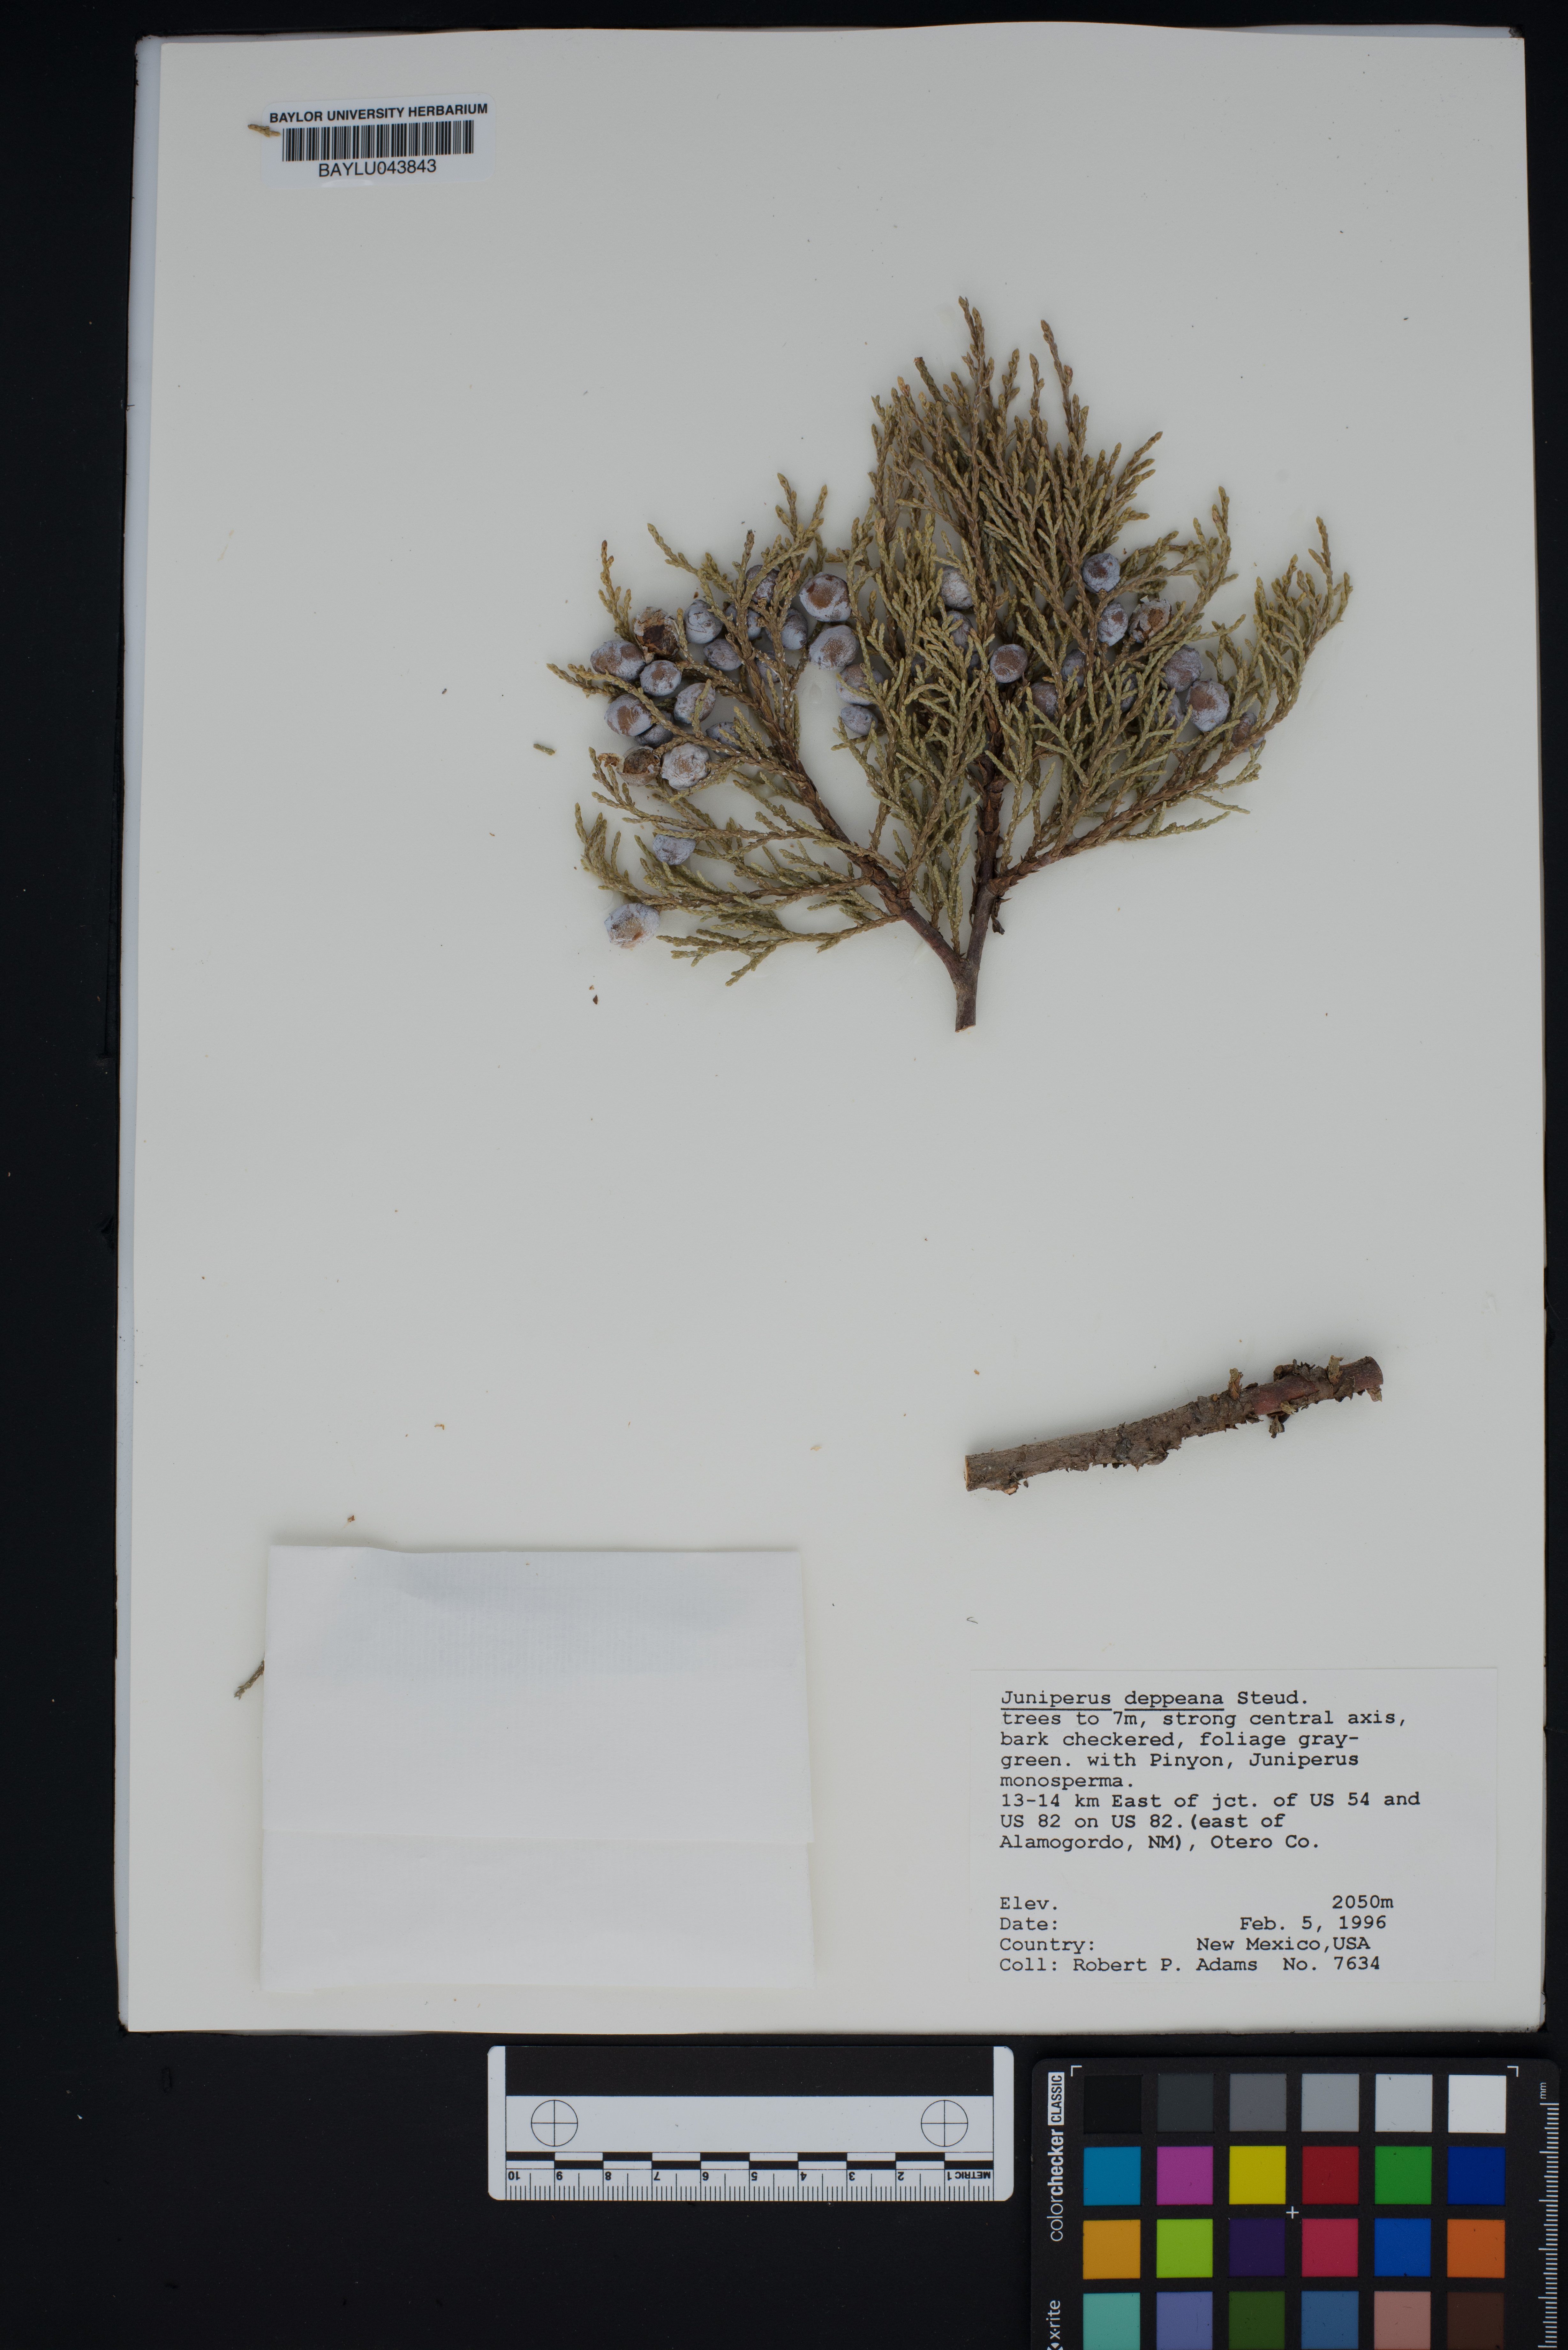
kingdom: Plantae
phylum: Tracheophyta
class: Pinopsida
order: Pinales
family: Cupressaceae
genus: Juniperus
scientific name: Juniperus deppeana
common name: Alligator juniper
